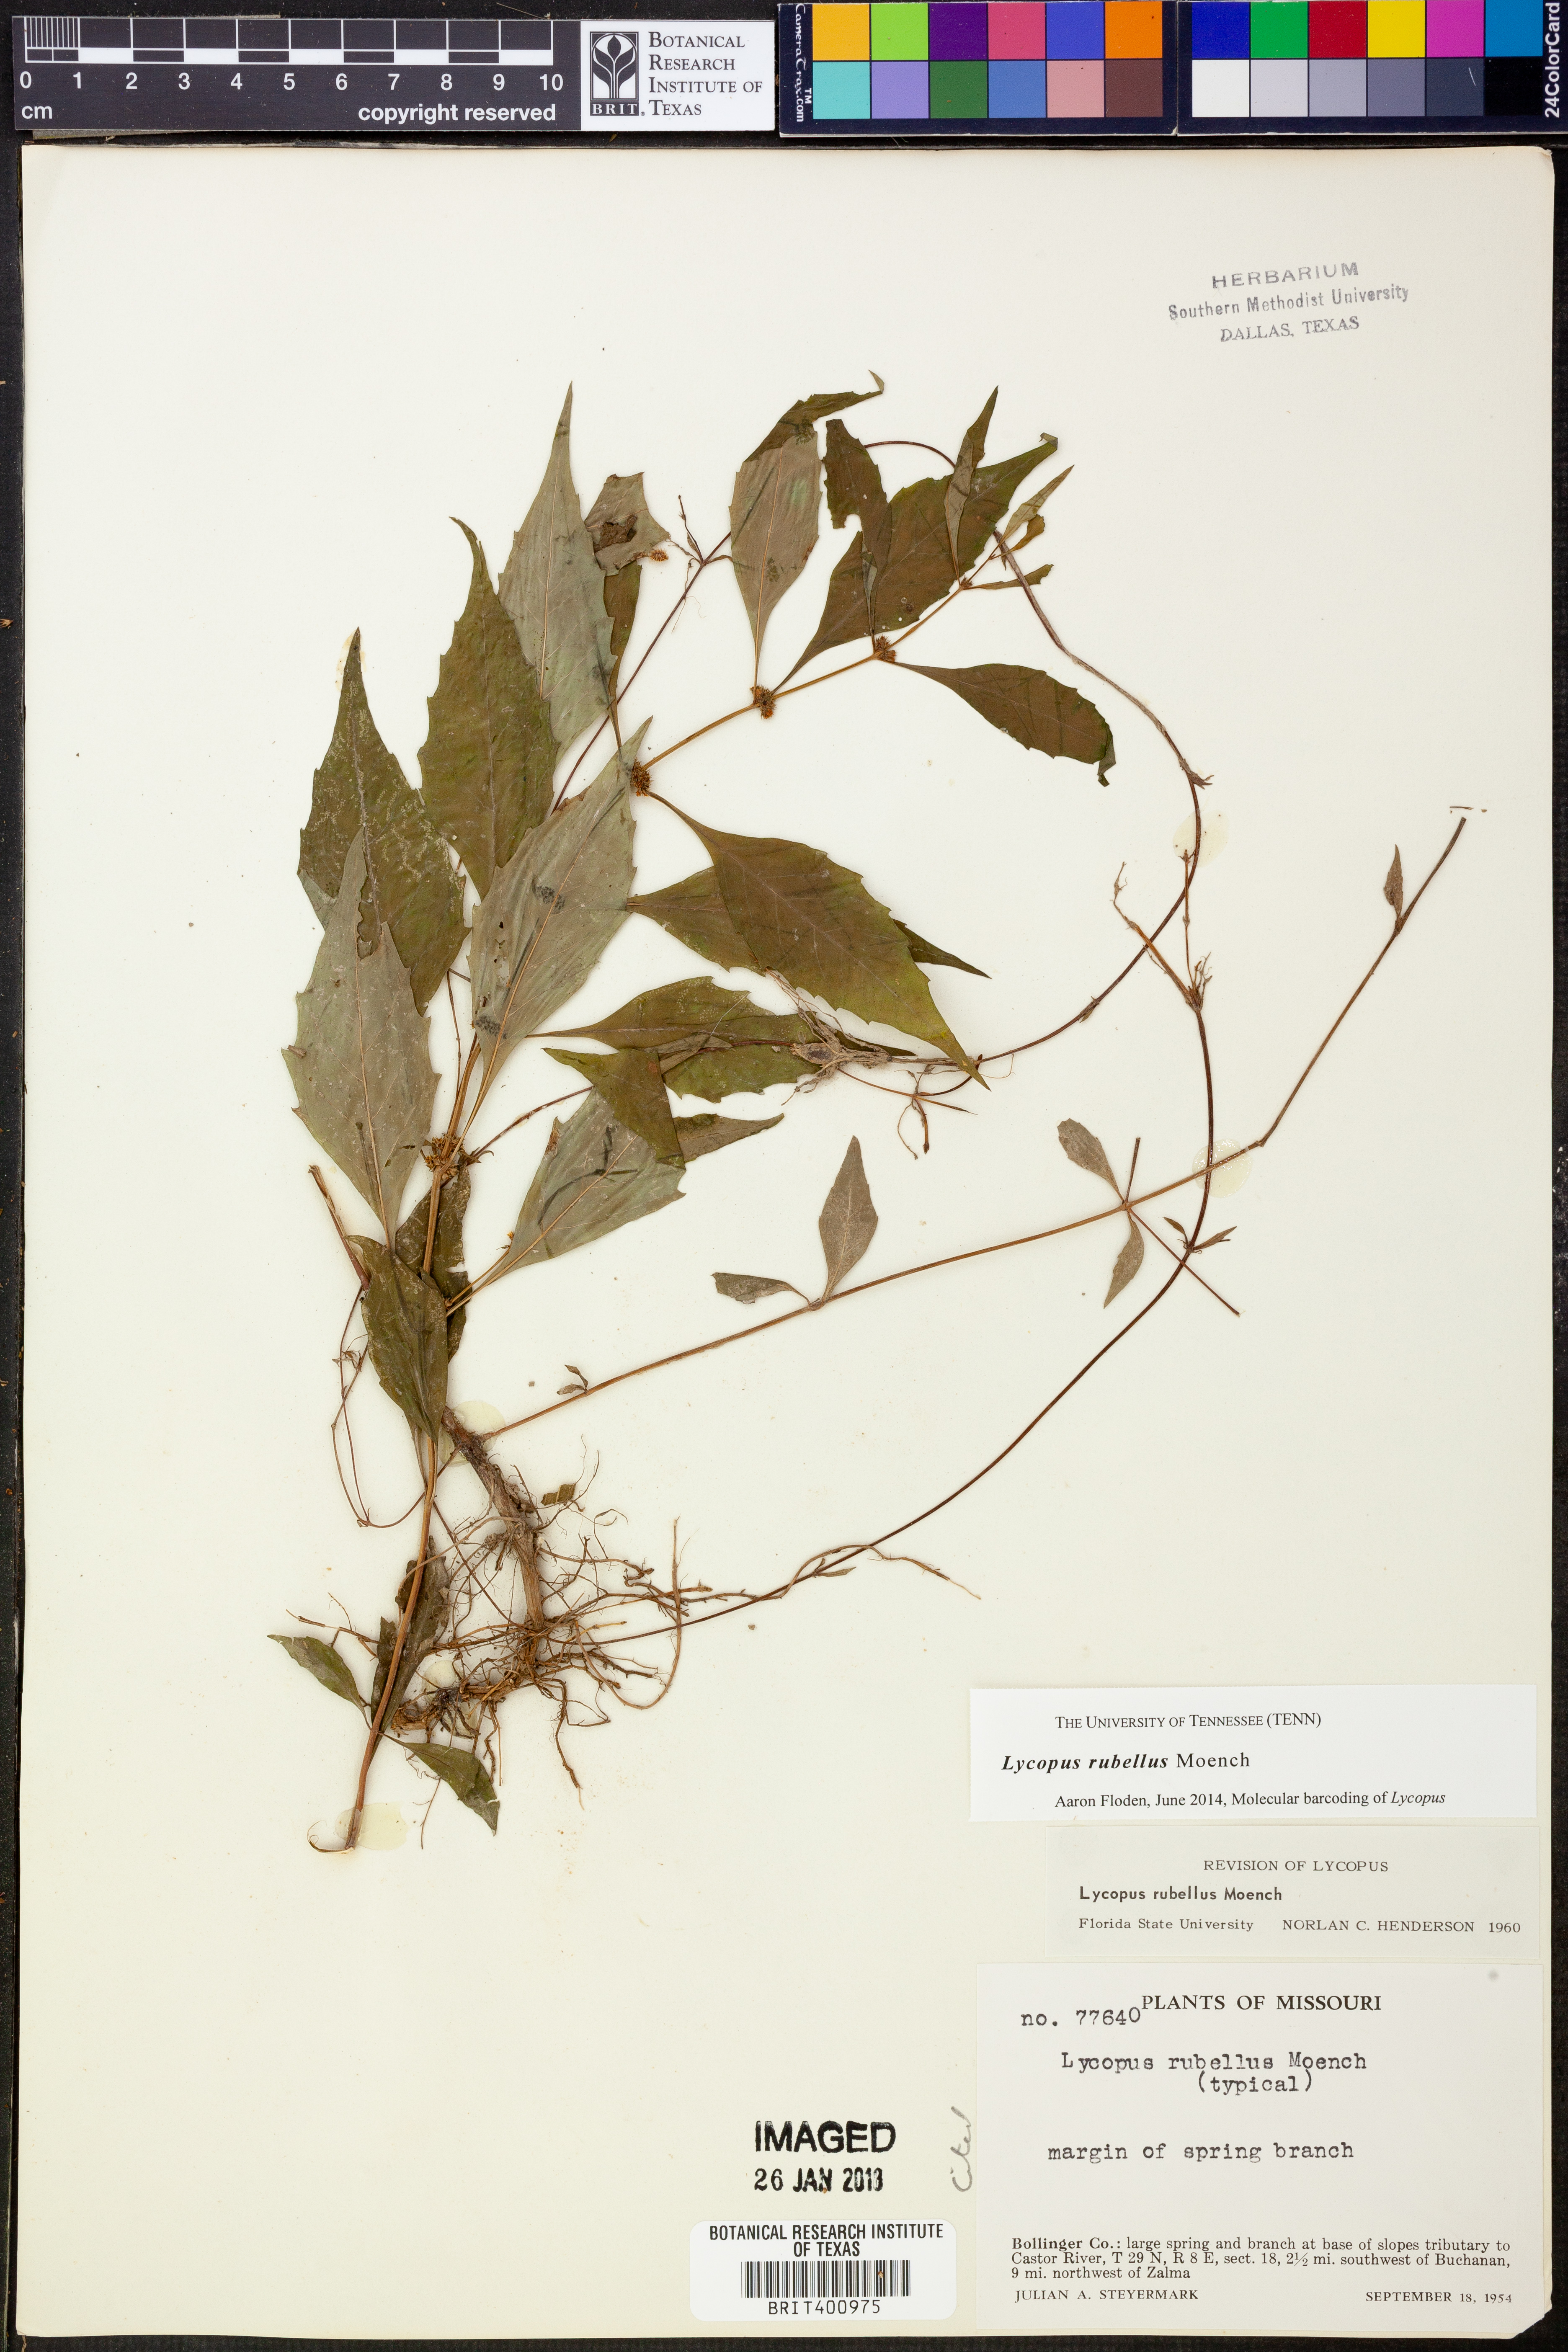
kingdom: Plantae
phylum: Tracheophyta
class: Magnoliopsida
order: Lamiales
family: Lamiaceae
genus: Lycopus
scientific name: Lycopus rubellus
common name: Stalked bugleweed
